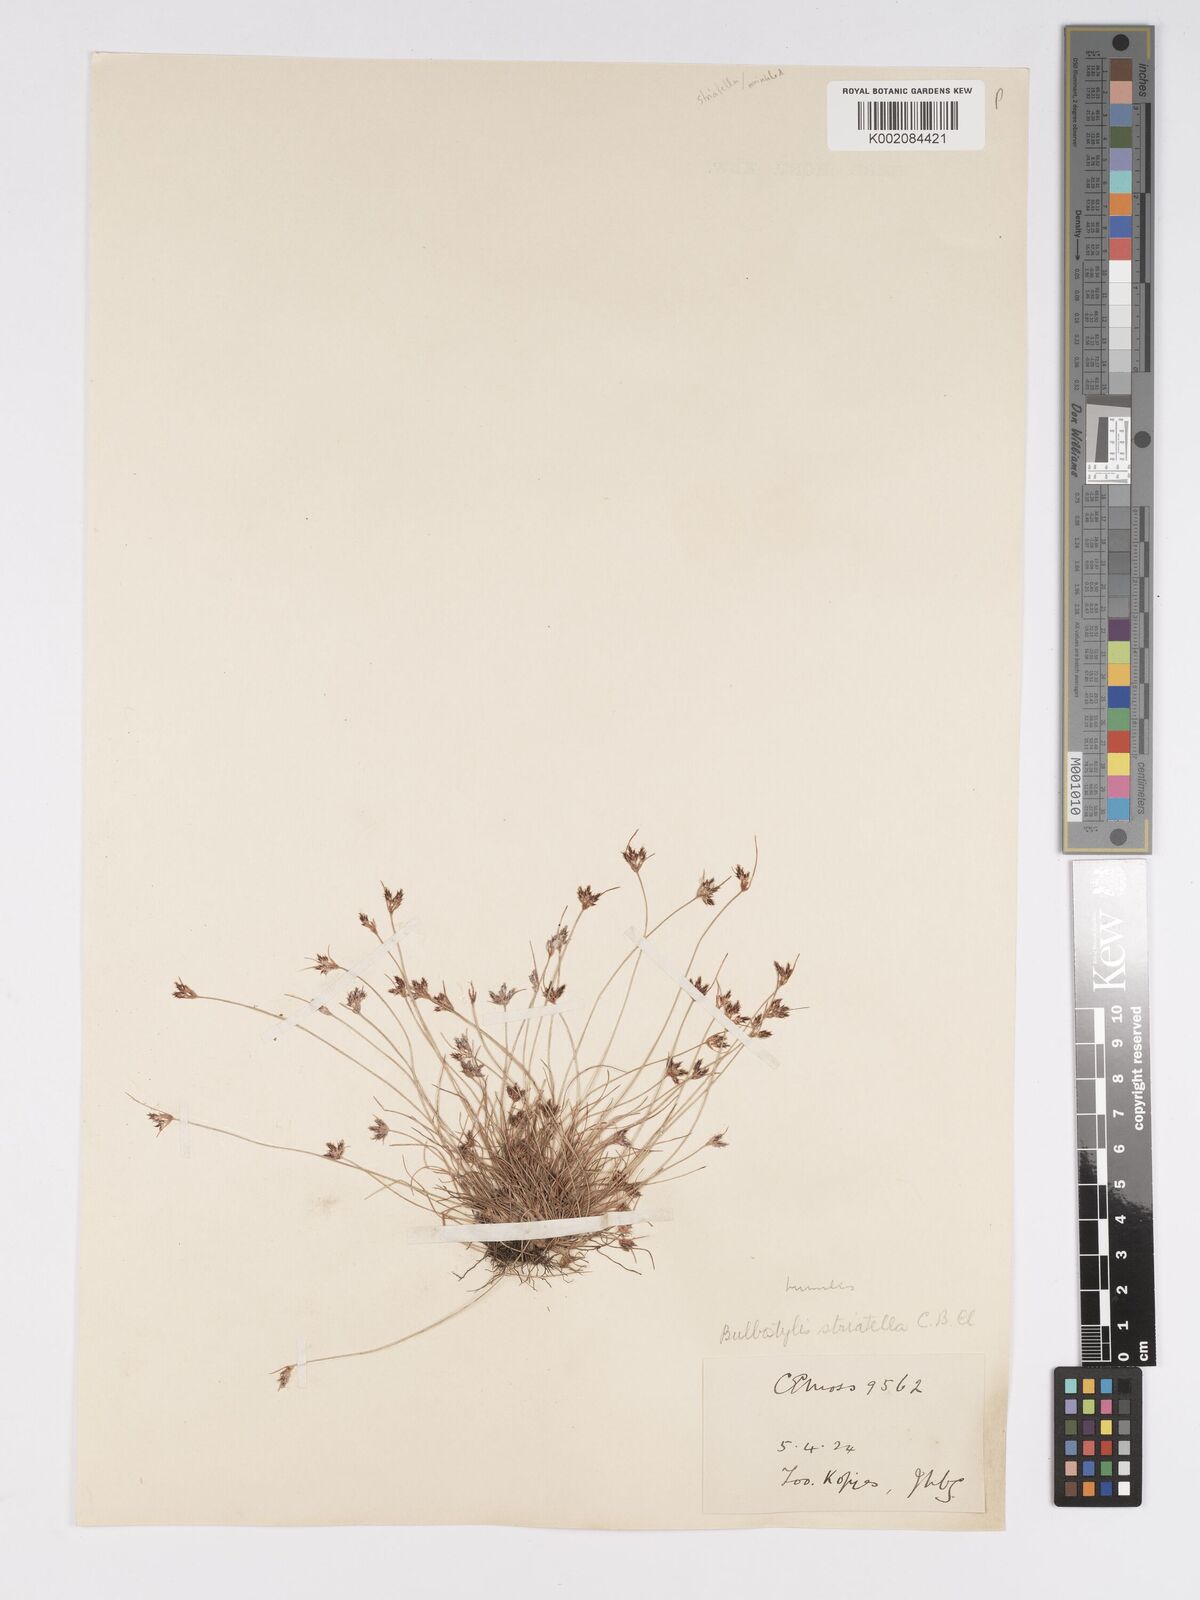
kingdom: Plantae
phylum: Tracheophyta
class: Liliopsida
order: Poales
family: Cyperaceae
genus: Bulbostylis
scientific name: Bulbostylis humilis
